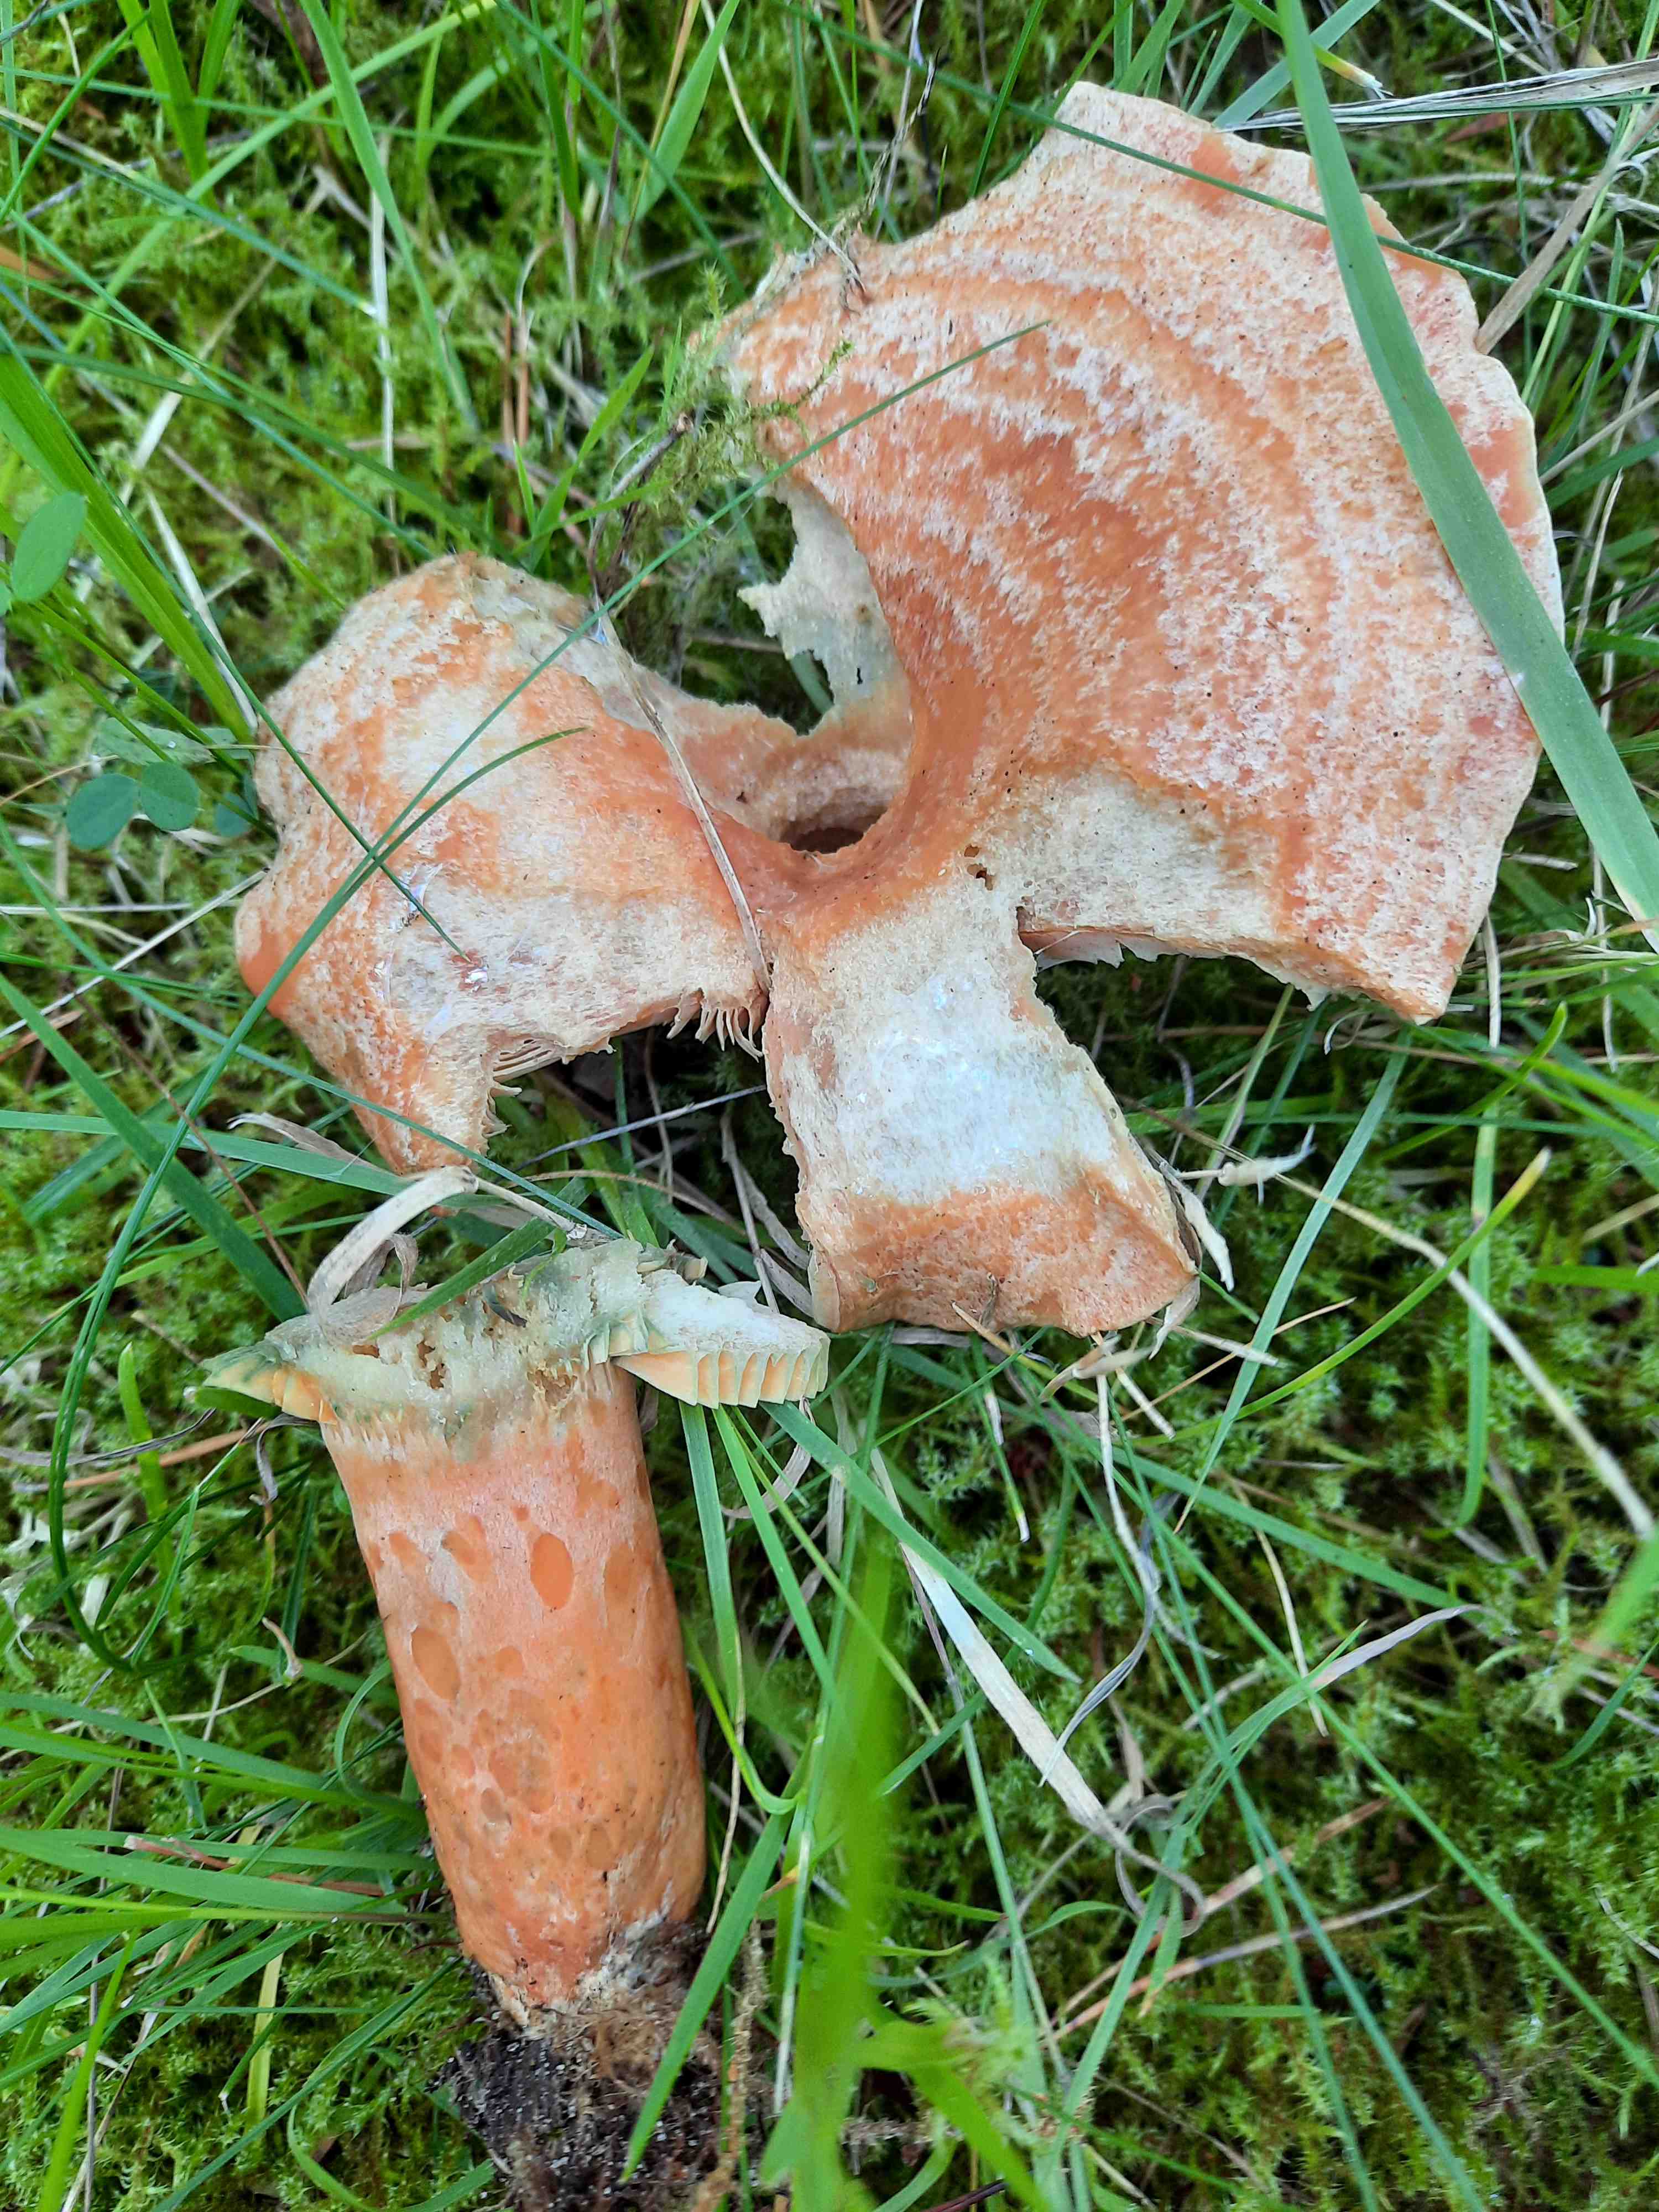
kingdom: Fungi
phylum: Basidiomycota
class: Agaricomycetes
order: Russulales
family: Russulaceae
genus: Lactarius
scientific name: Lactarius deliciosus
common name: velsmagende mælkehat
